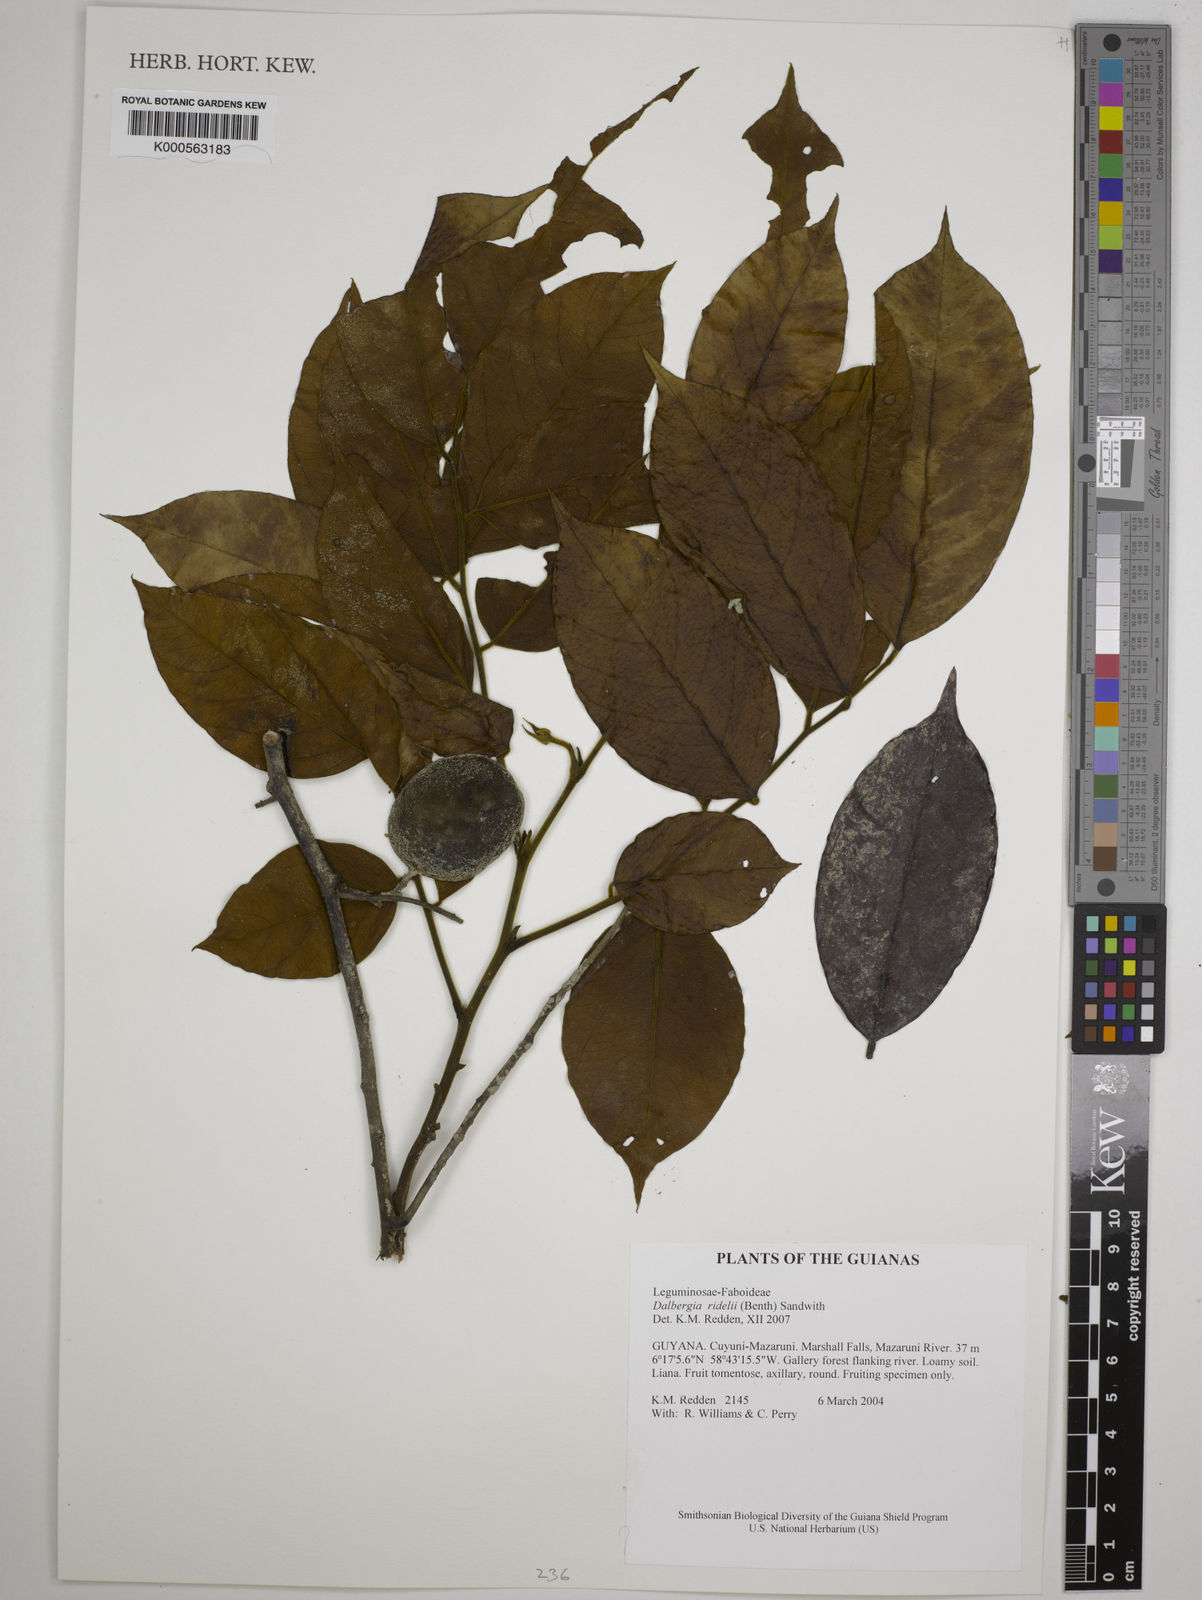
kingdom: Plantae
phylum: Tracheophyta
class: Magnoliopsida
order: Fabales
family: Fabaceae
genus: Dalbergia
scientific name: Dalbergia
